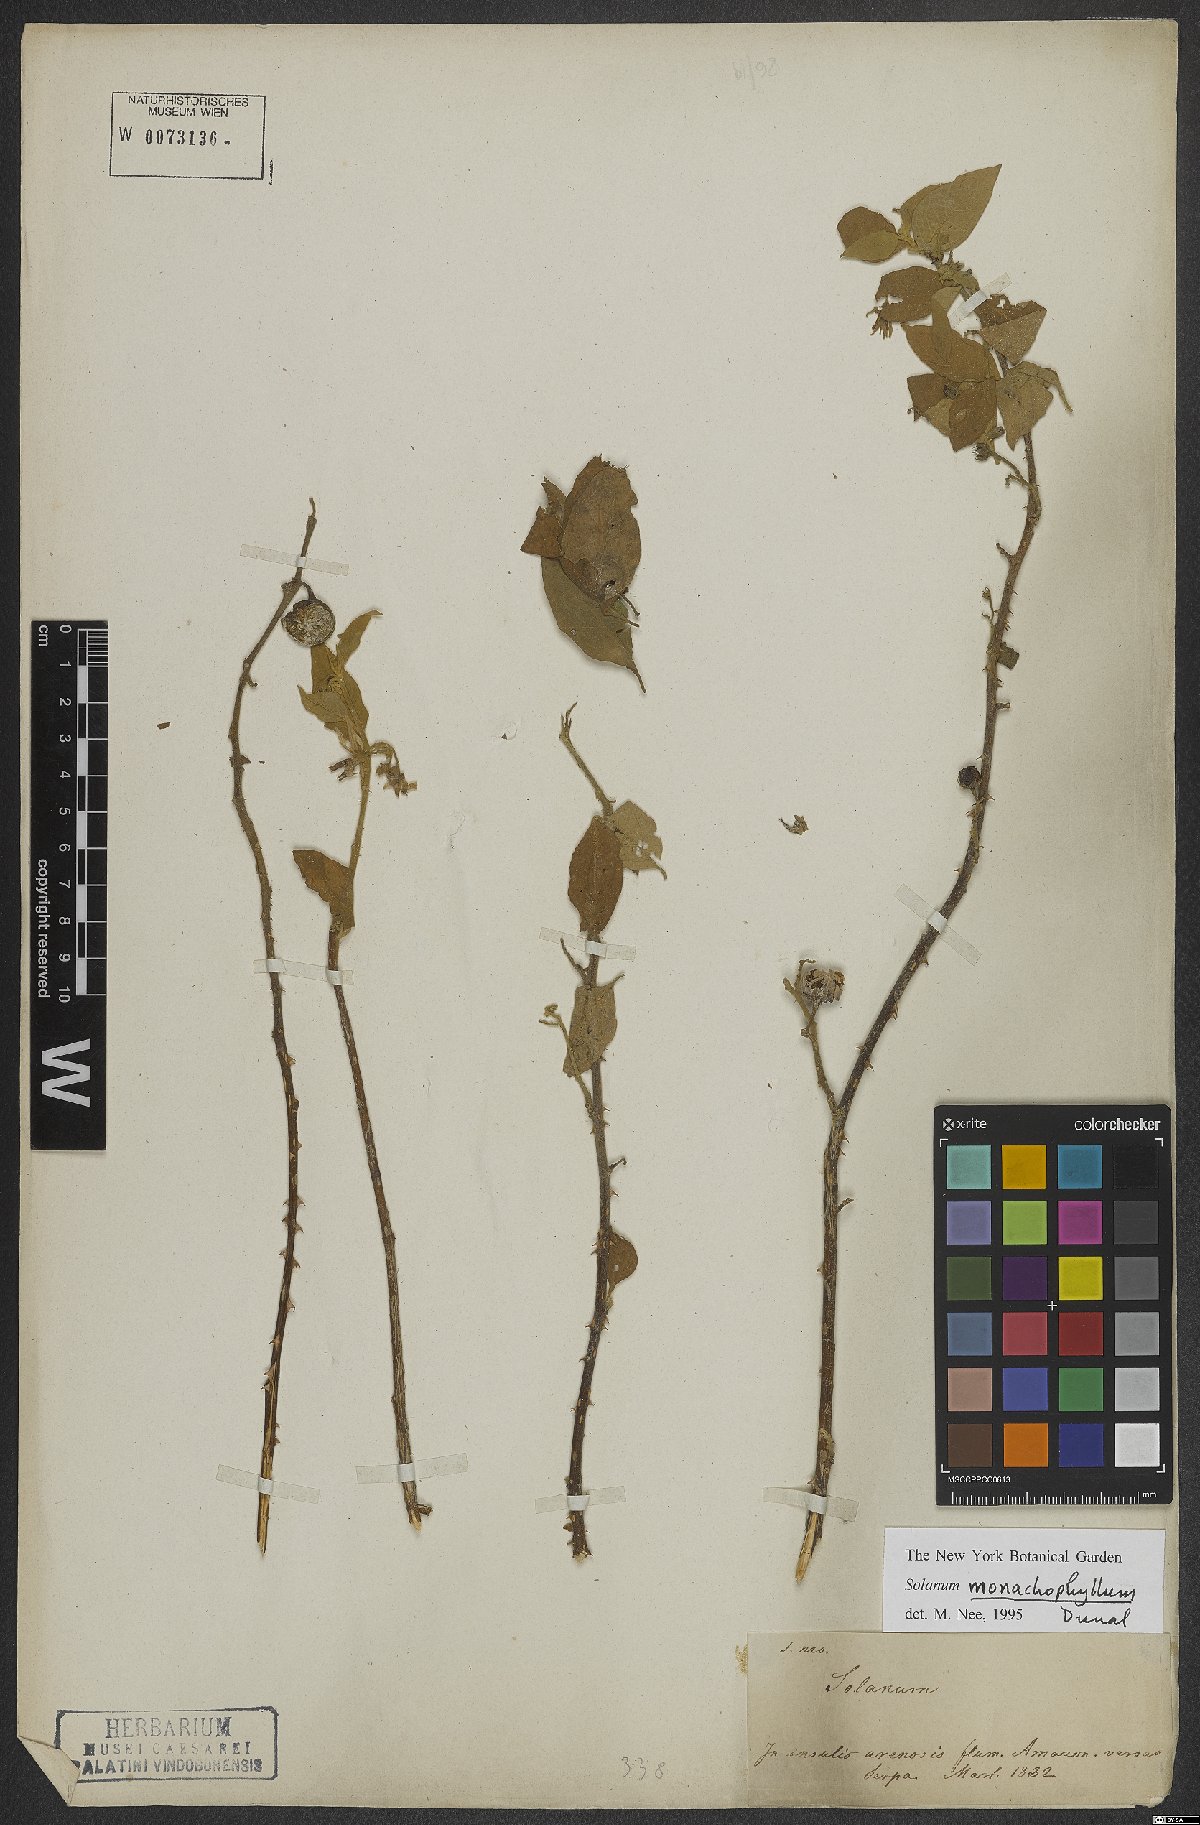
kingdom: Plantae
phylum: Tracheophyta
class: Magnoliopsida
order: Solanales
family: Solanaceae
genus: Solanum
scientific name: Solanum monachophyllum
